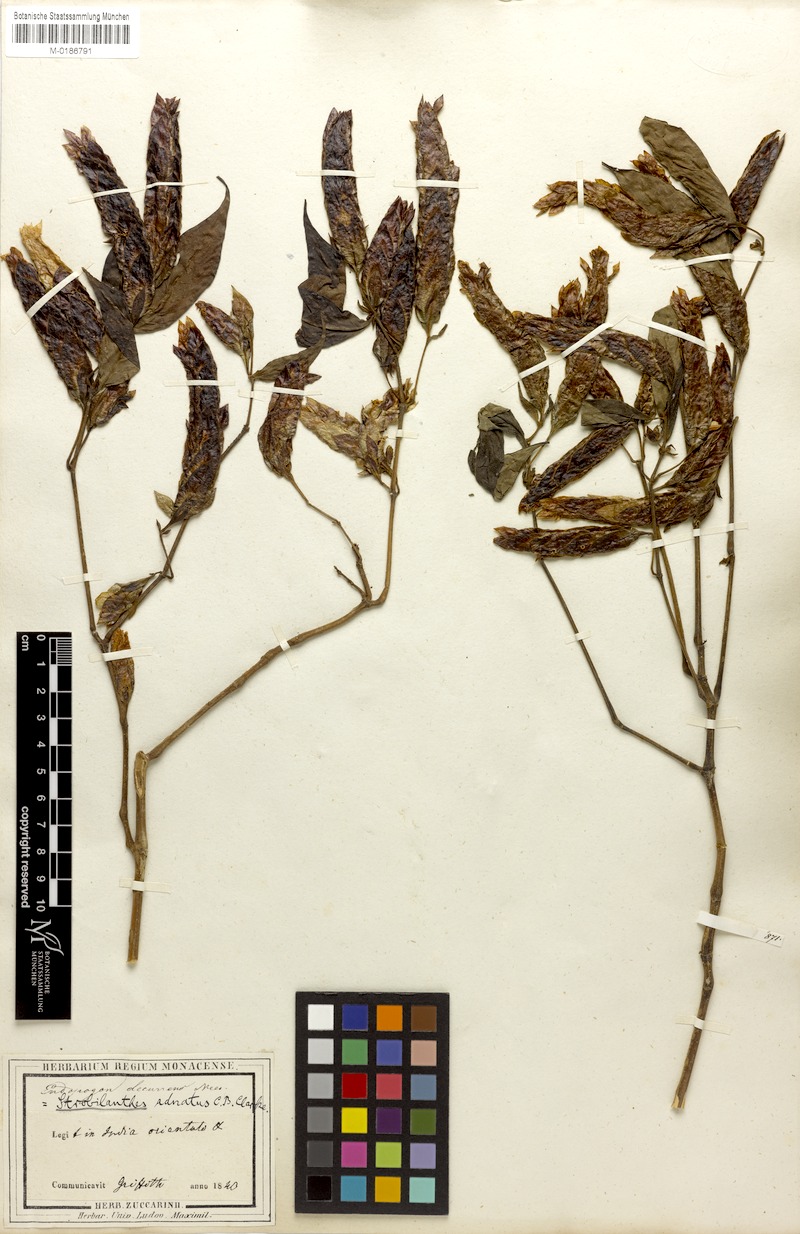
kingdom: Plantae
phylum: Tracheophyta
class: Magnoliopsida
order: Lamiales
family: Acanthaceae
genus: Strobilanthes
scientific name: Strobilanthes adnata
